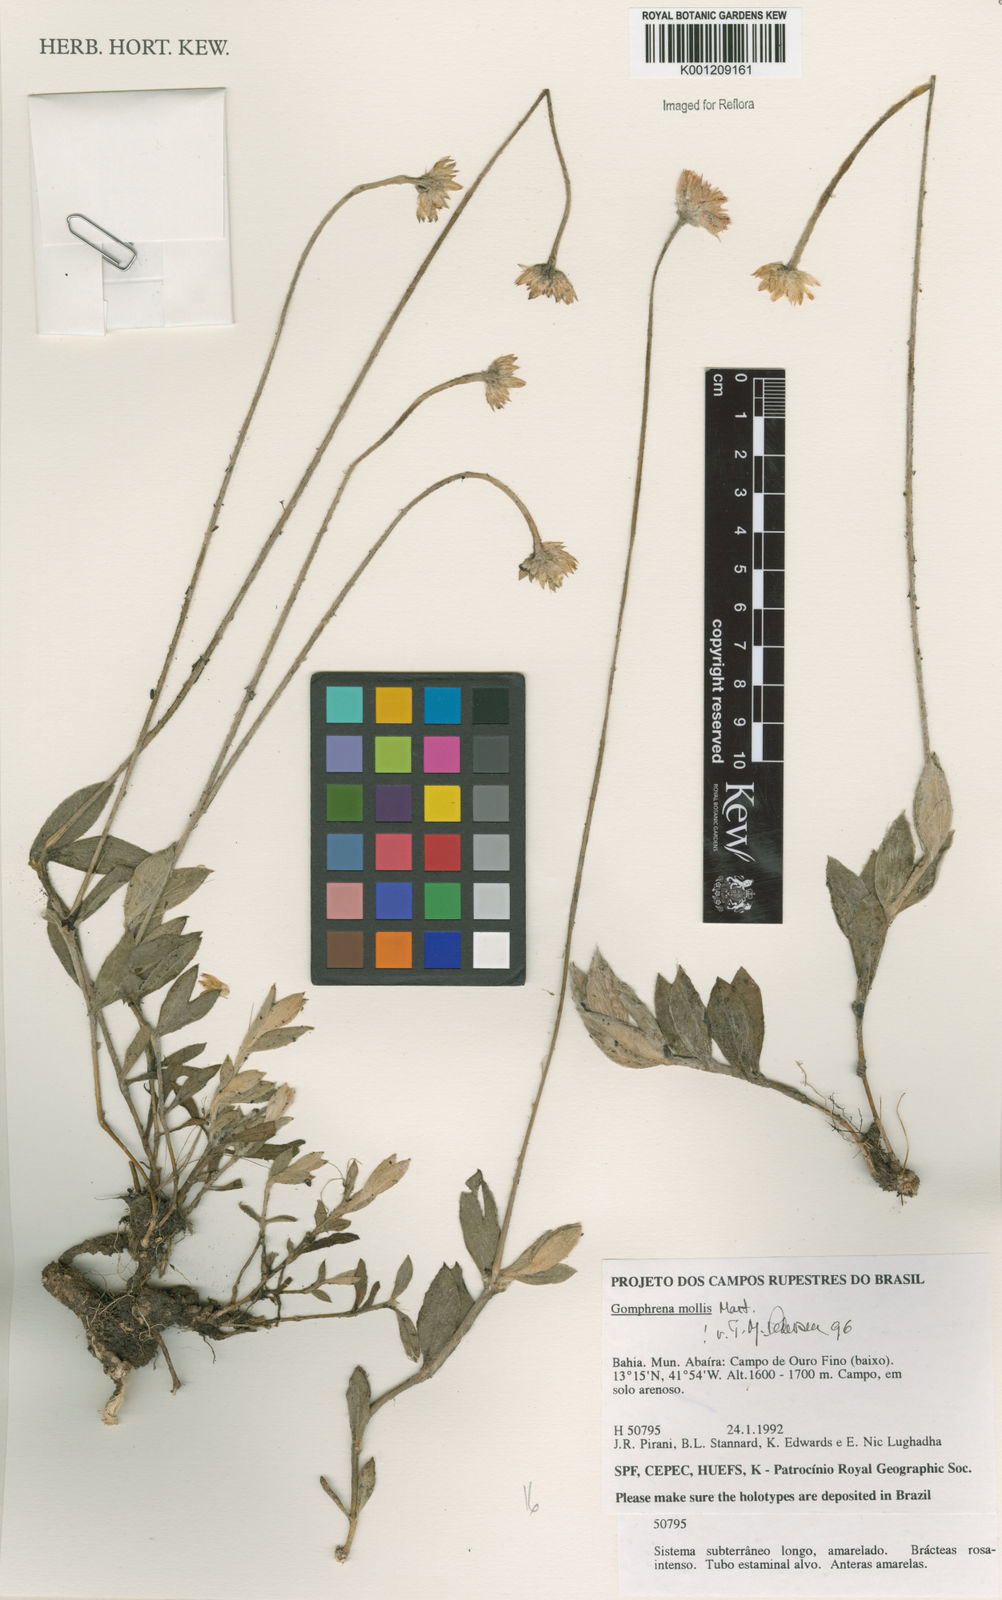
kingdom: Plantae
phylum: Tracheophyta
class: Magnoliopsida
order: Caryophyllales
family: Amaranthaceae
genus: Gomphrena
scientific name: Gomphrena mollis
